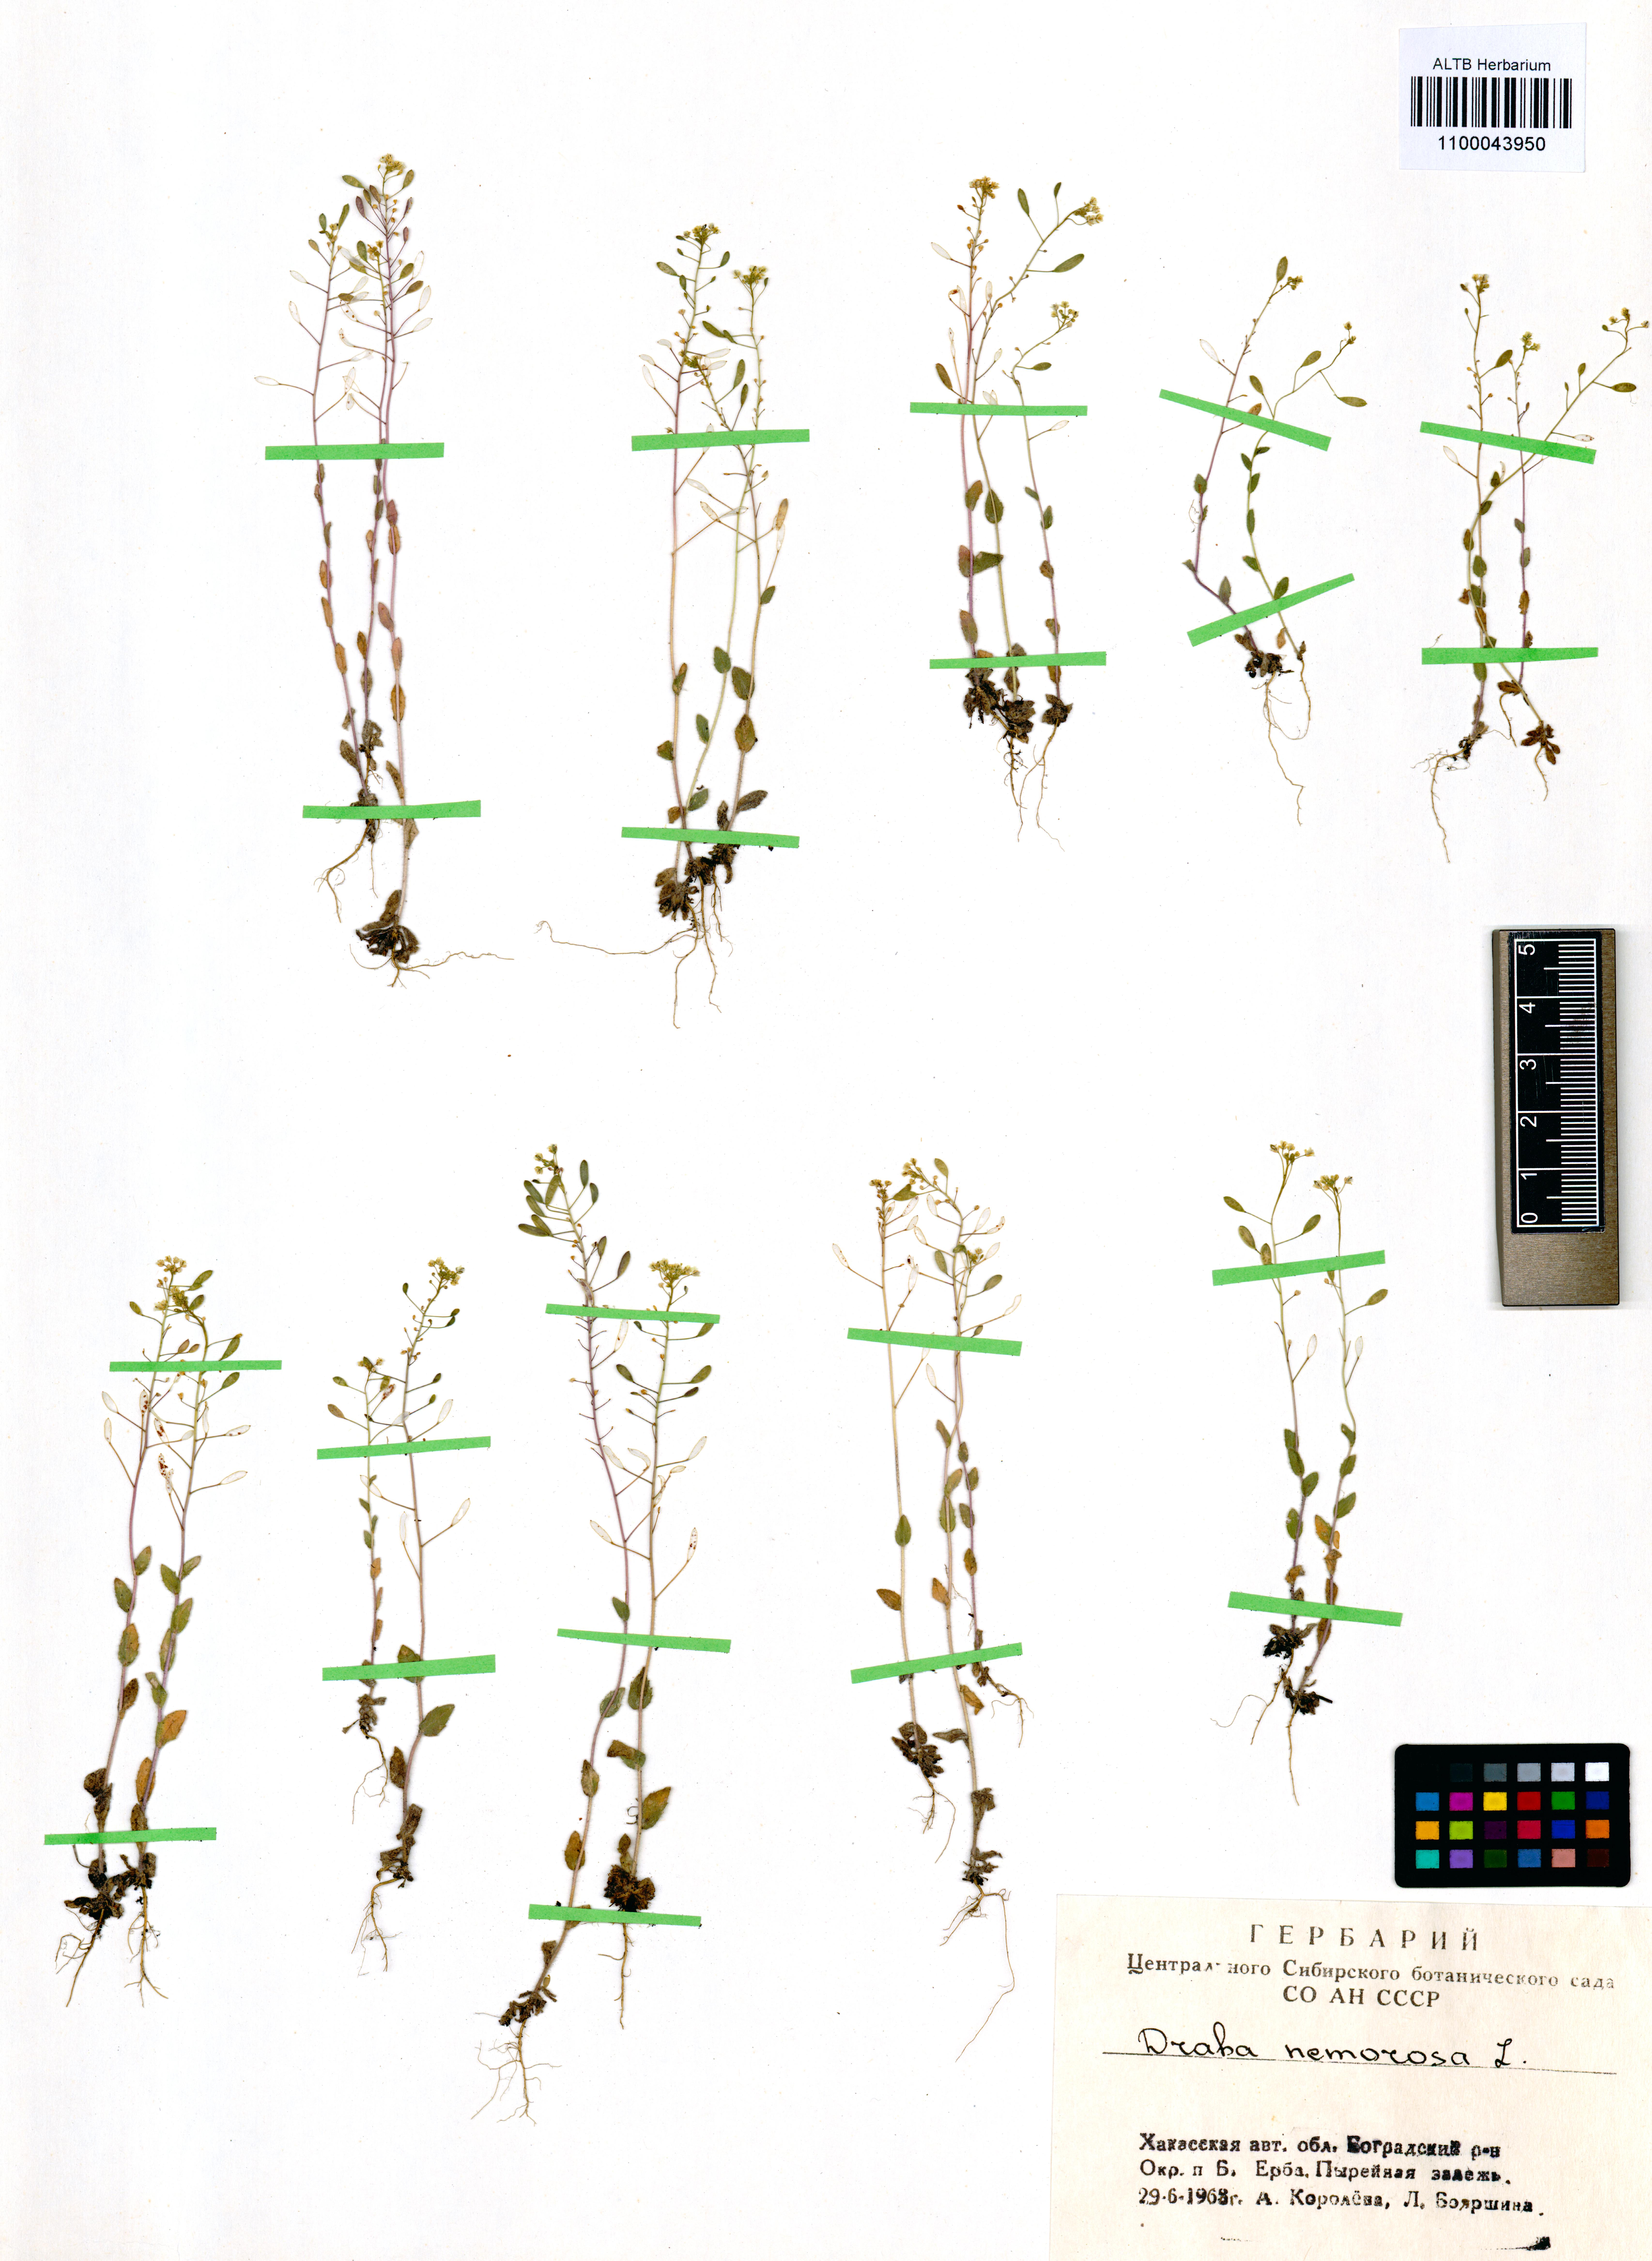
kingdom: Plantae
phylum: Tracheophyta
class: Magnoliopsida
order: Brassicales
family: Brassicaceae
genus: Draba
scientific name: Draba nemorosa
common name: Wood whitlow-grass
